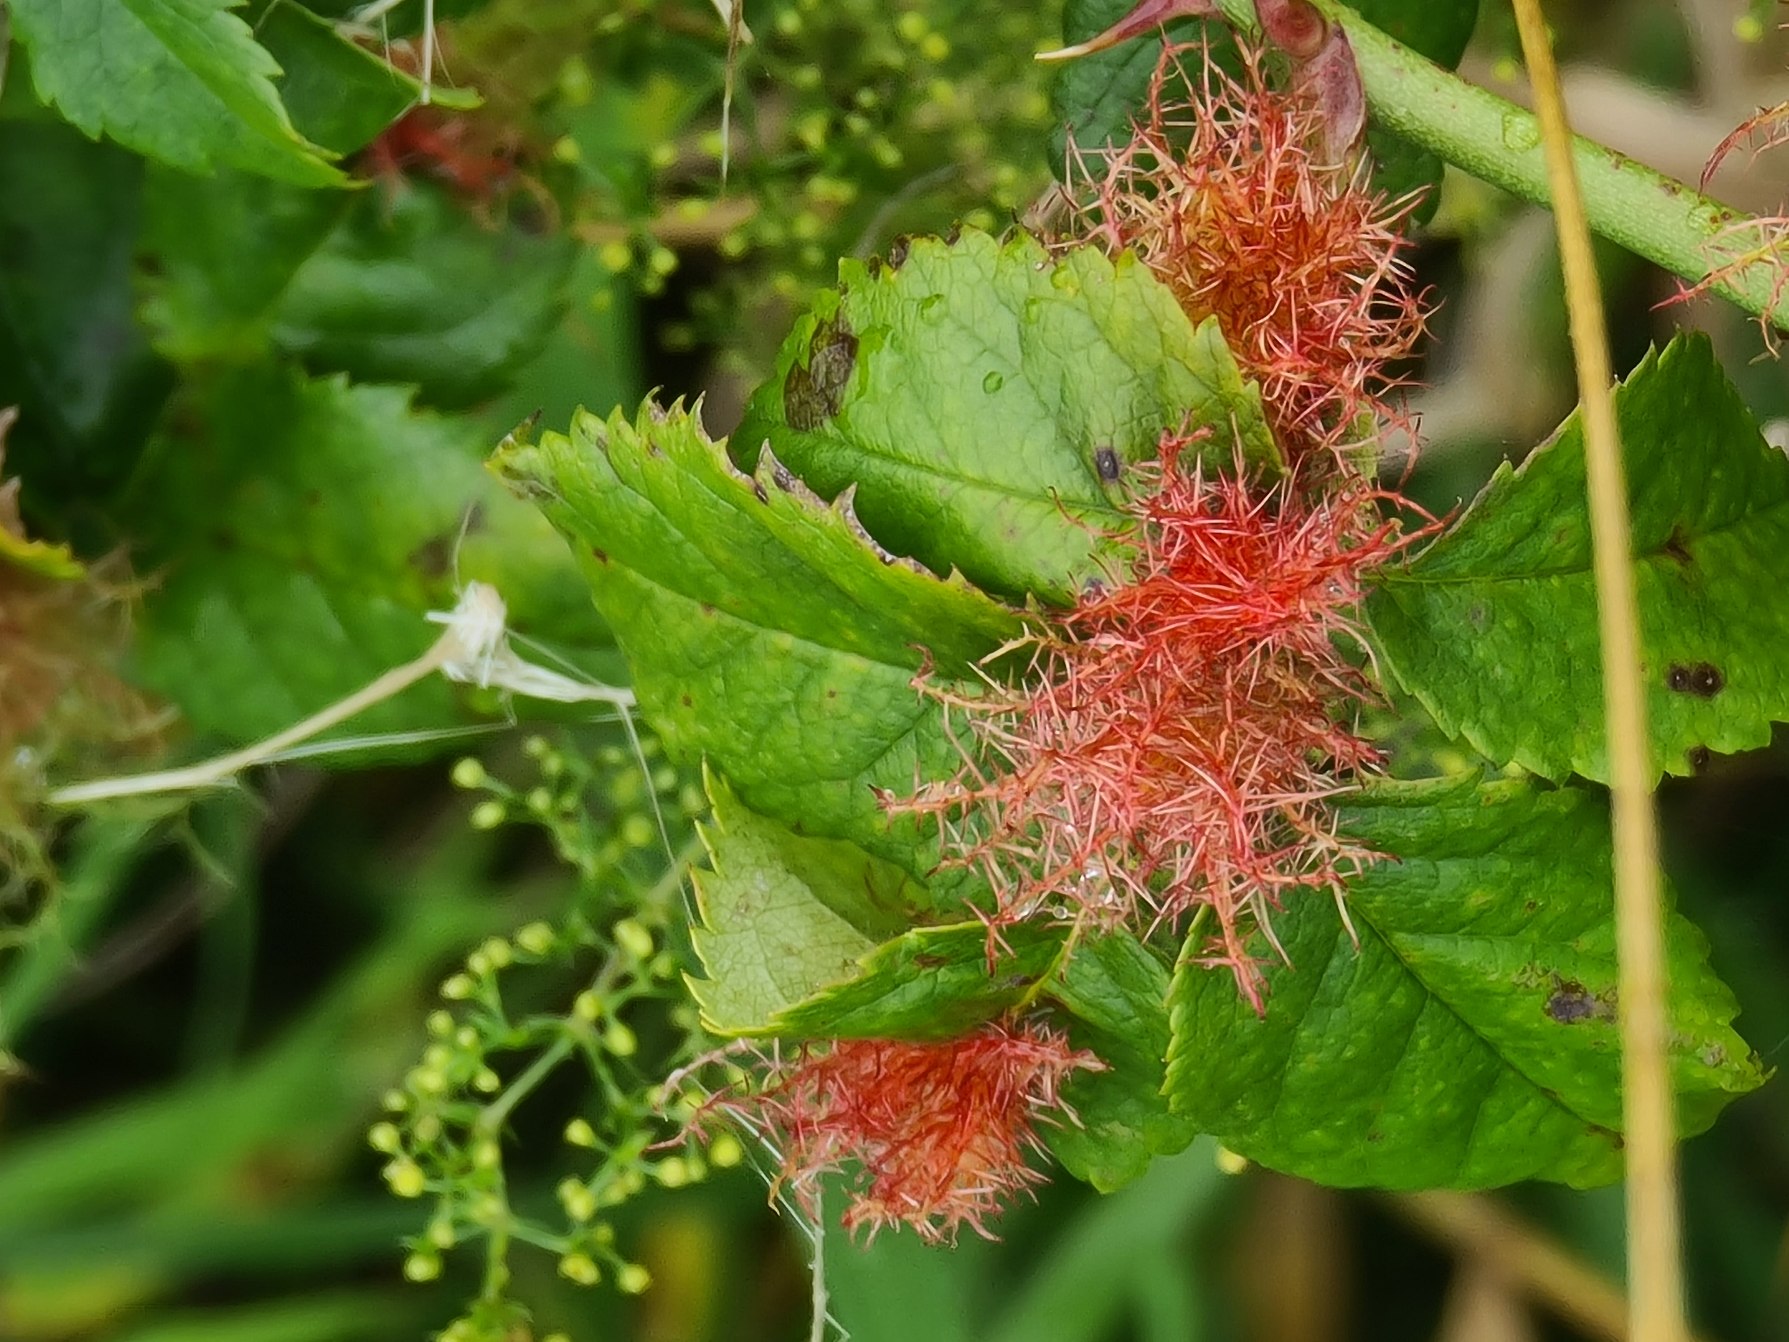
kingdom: Animalia
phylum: Arthropoda
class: Insecta
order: Hymenoptera
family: Cynipidae
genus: Diplolepis
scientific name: Diplolepis rosae
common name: Bedeguargalhveps
